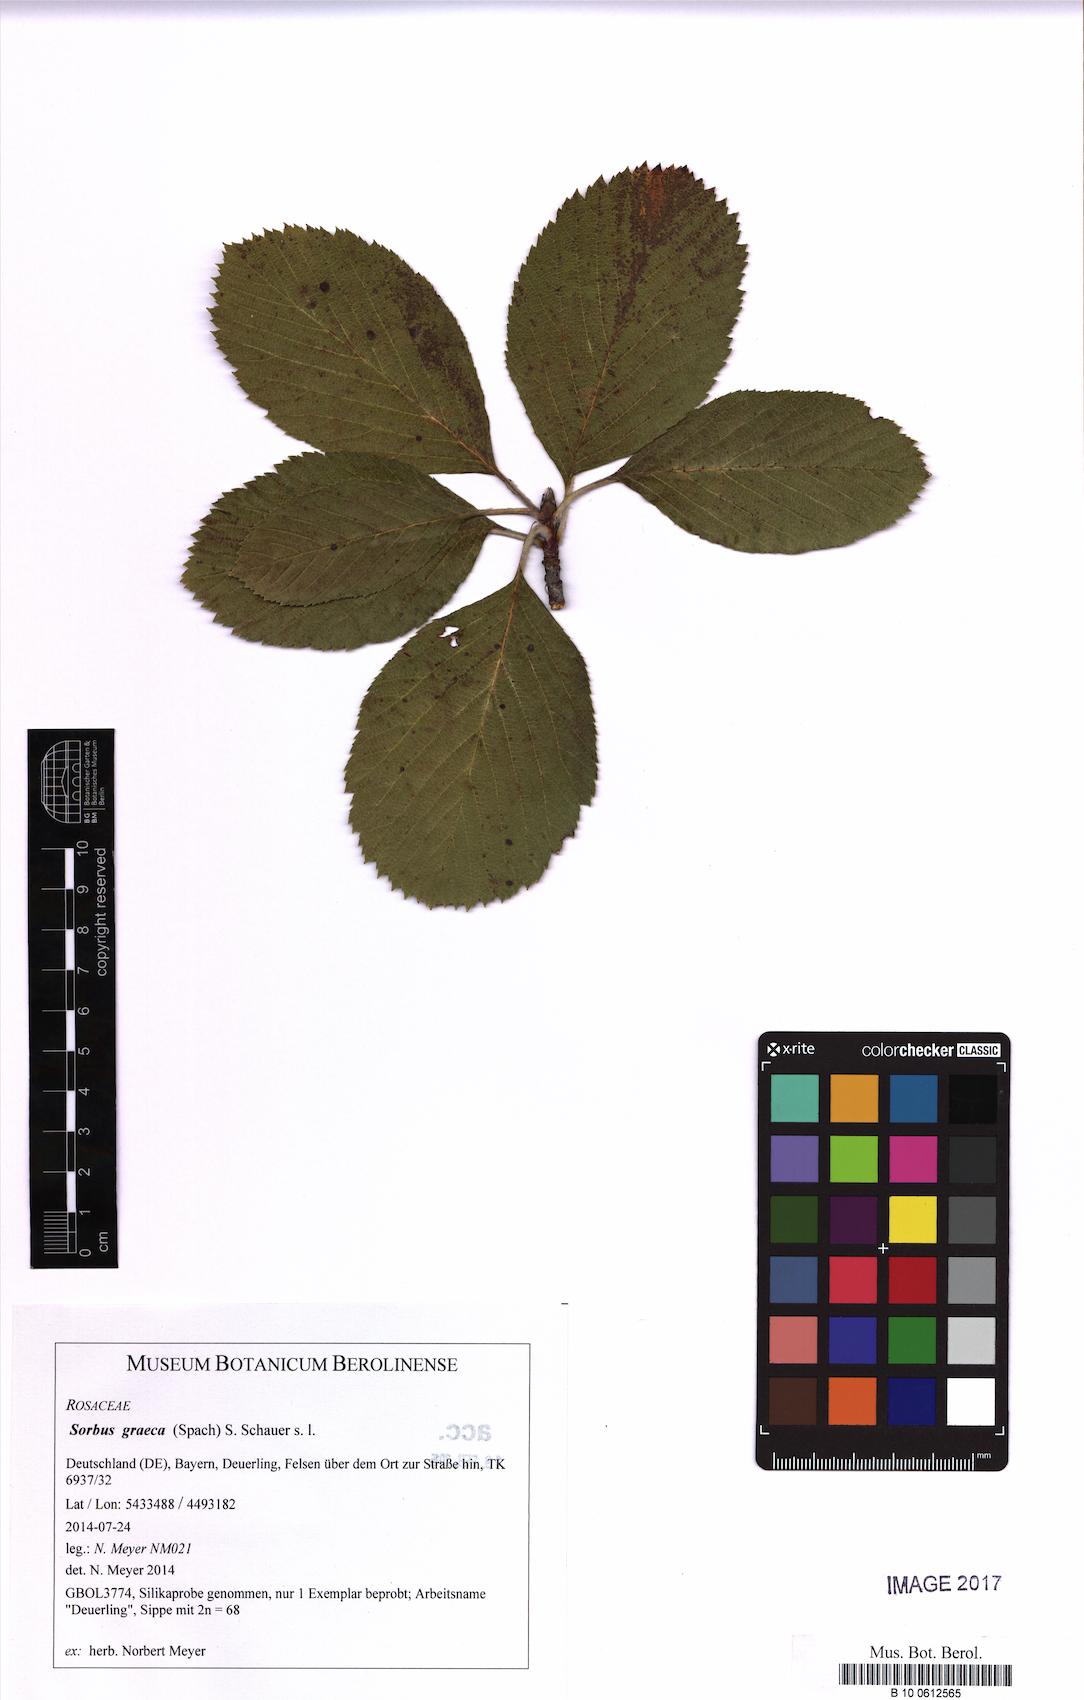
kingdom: Plantae
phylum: Tracheophyta
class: Magnoliopsida
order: Rosales
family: Rosaceae
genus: Aria
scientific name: Aria graeca
